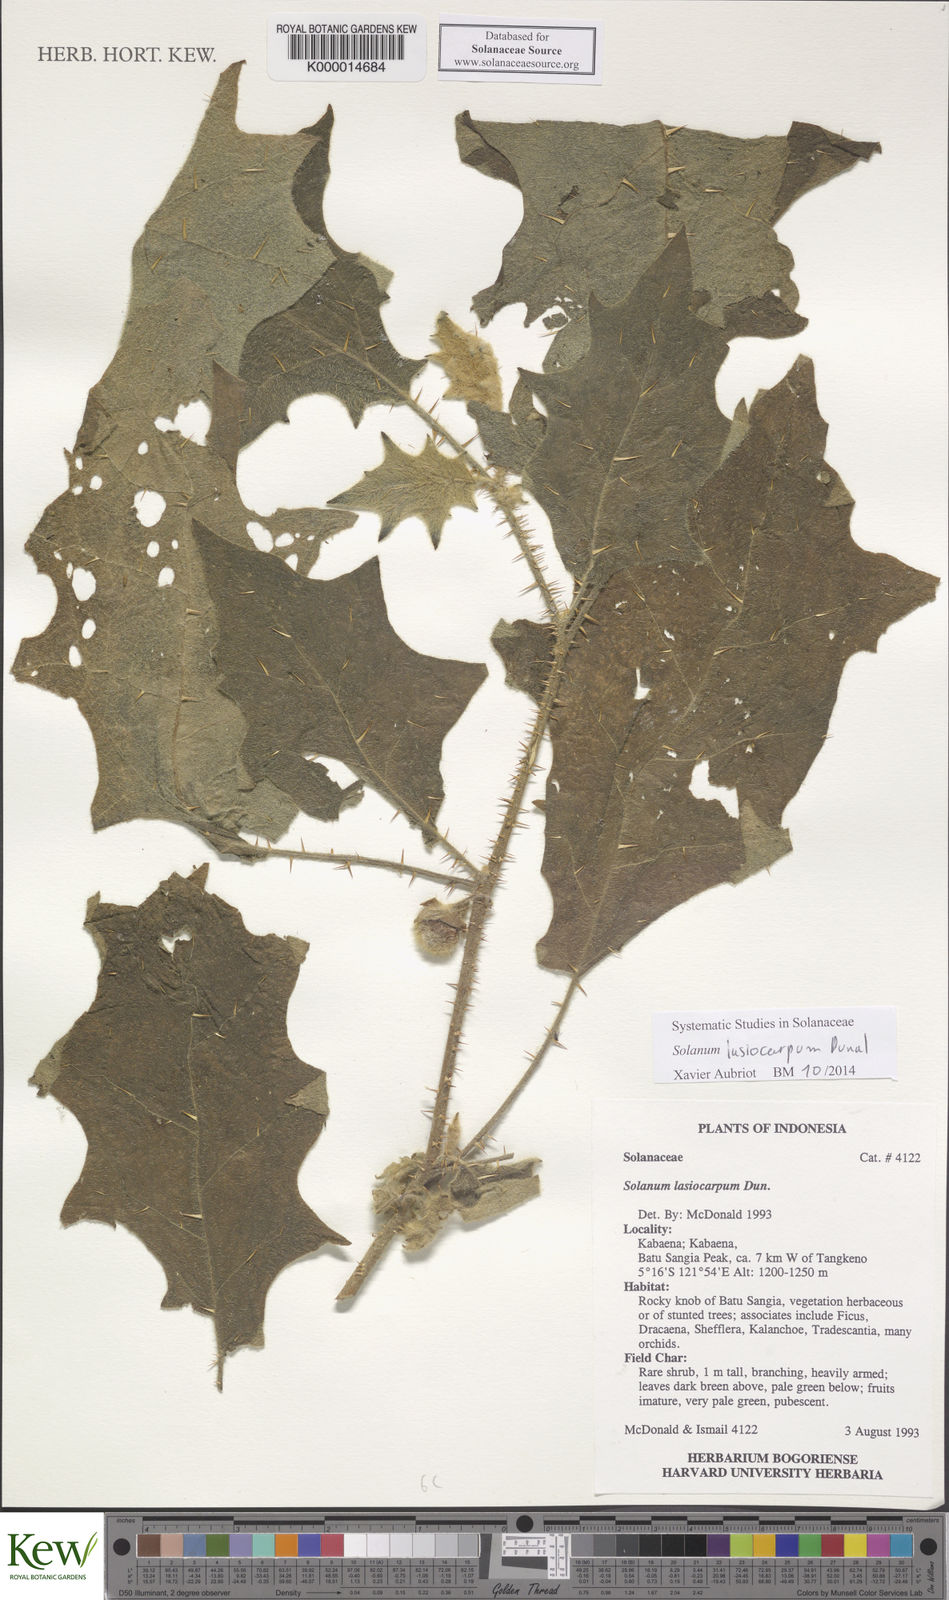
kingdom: Plantae
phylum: Tracheophyta
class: Magnoliopsida
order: Solanales
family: Solanaceae
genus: Solanum
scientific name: Solanum lasiocarpum
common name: Indian nightshade
